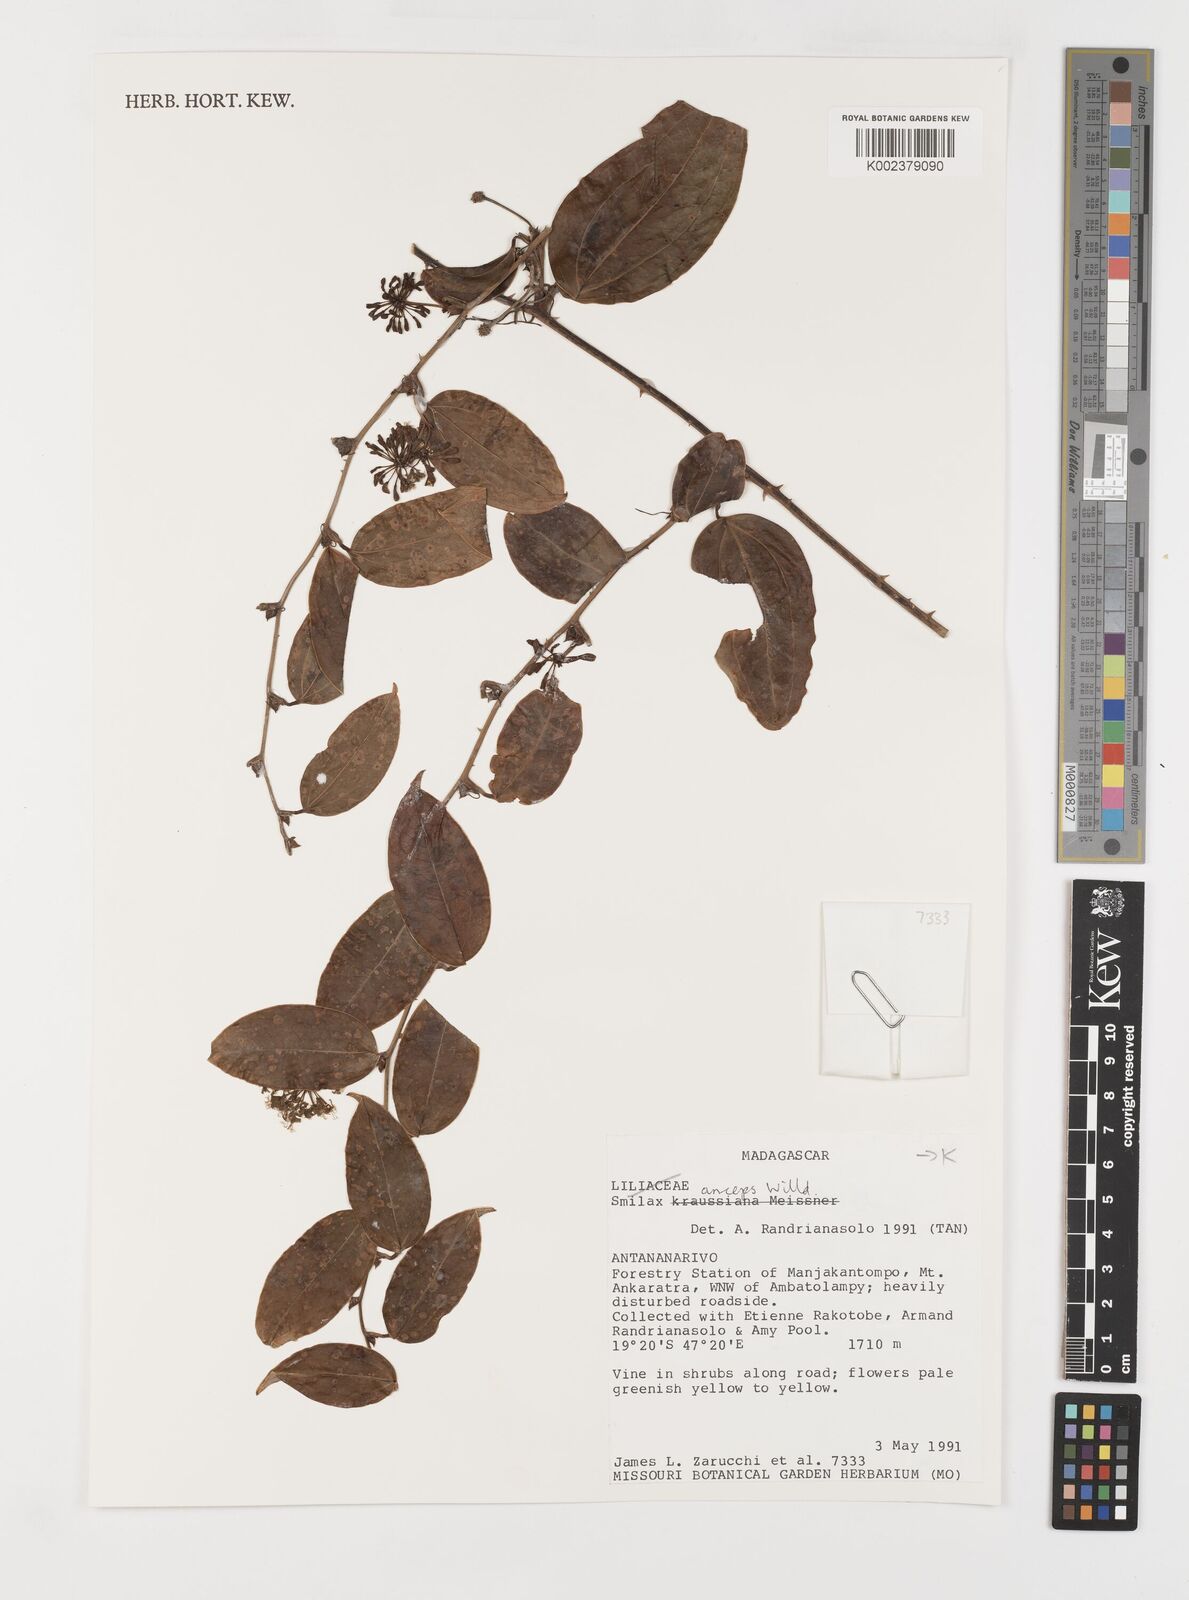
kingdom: Plantae
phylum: Tracheophyta
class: Liliopsida
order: Liliales
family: Smilacaceae
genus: Smilax
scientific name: Smilax anceps
